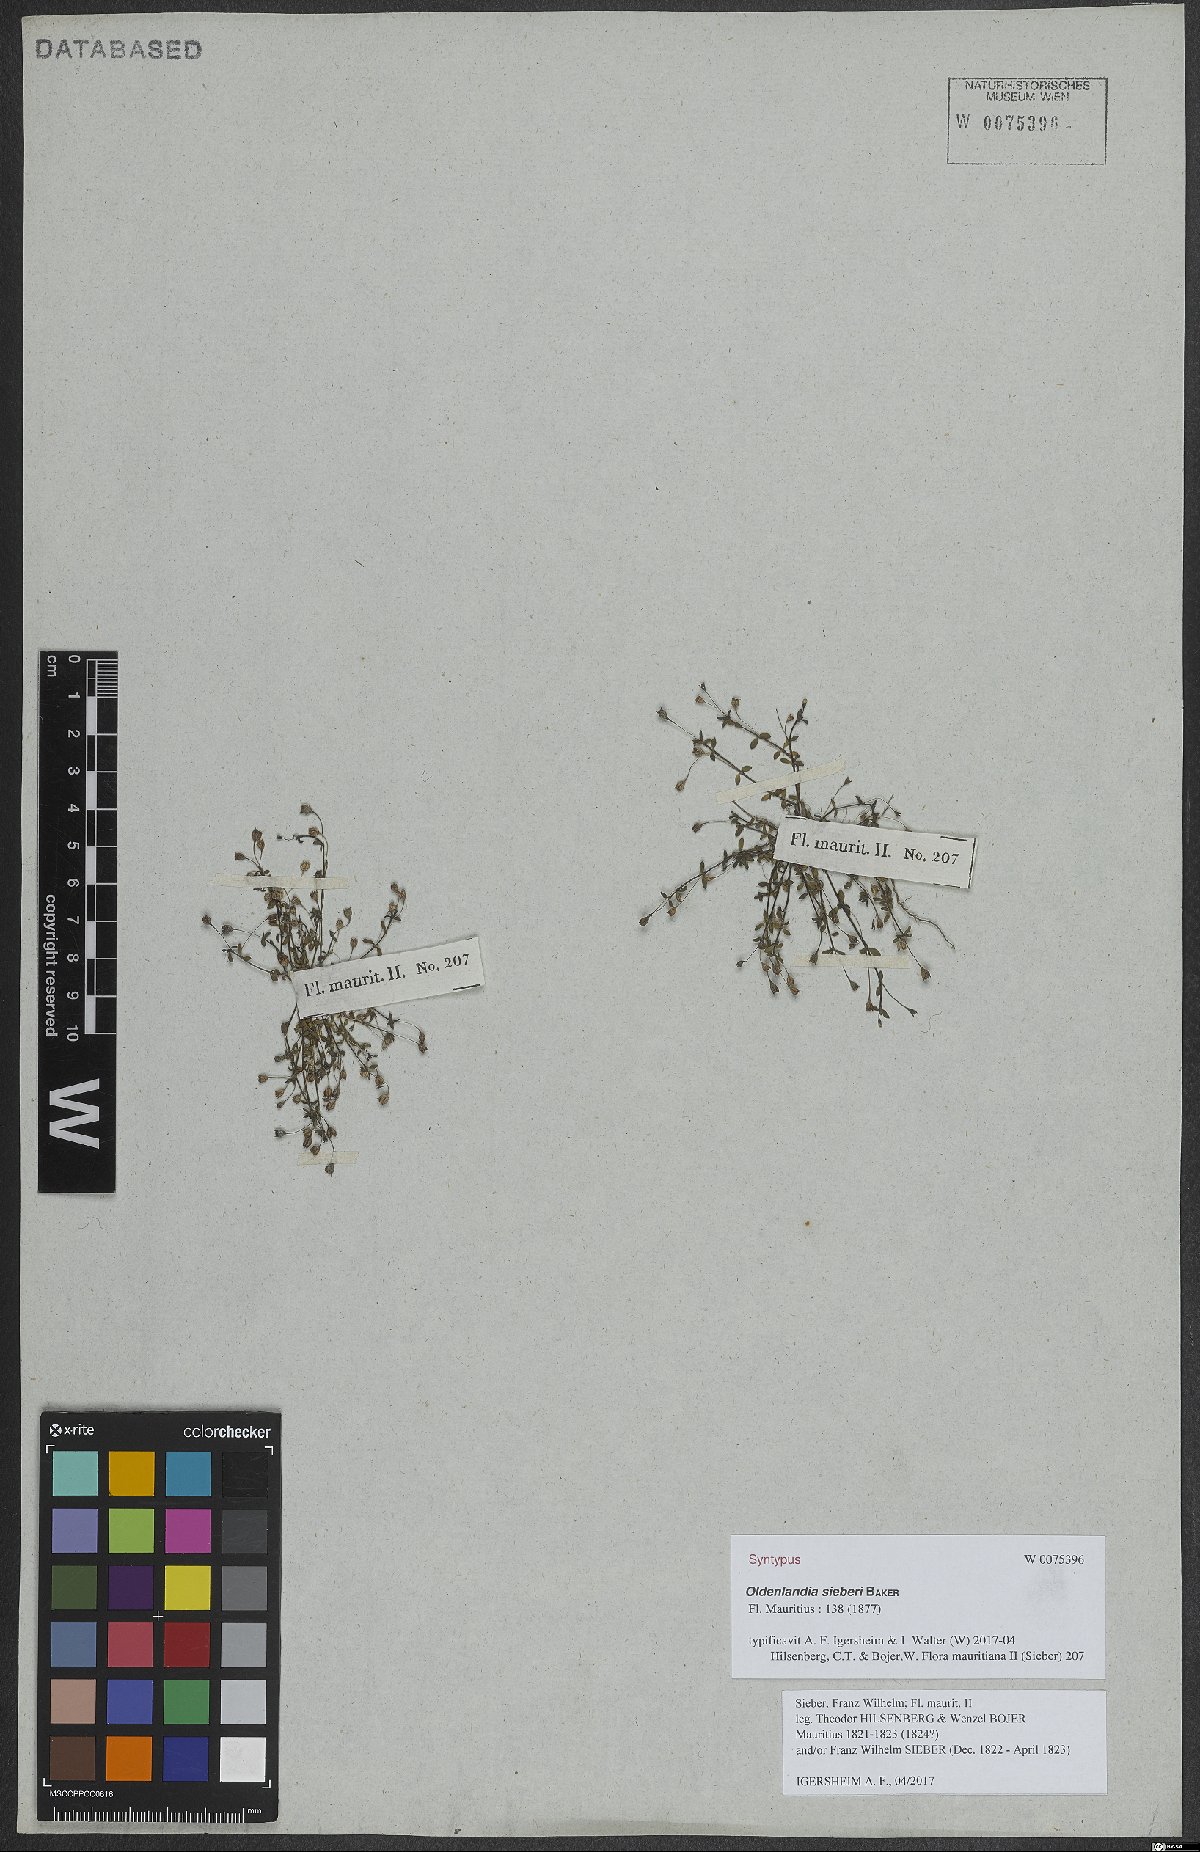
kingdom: Plantae
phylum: Tracheophyta
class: Magnoliopsida
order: Gentianales
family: Rubiaceae
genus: Oldenlandia
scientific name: Oldenlandia sieberi
